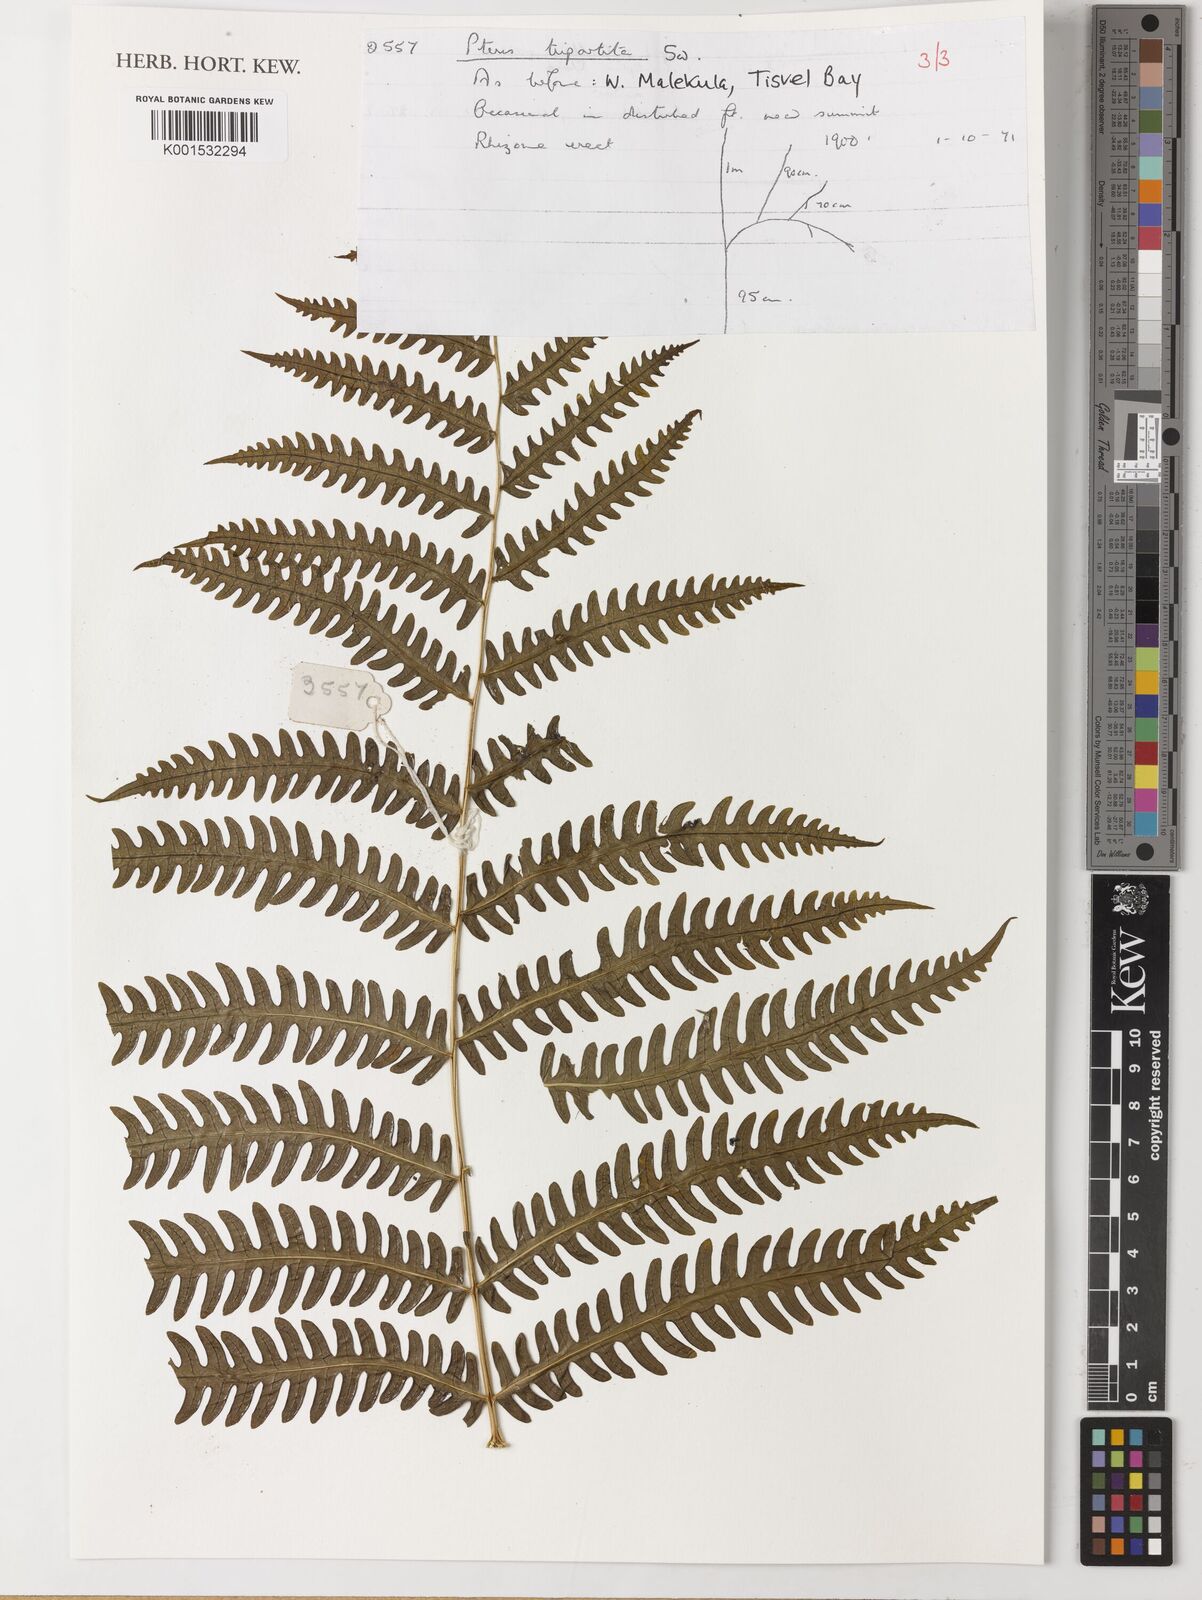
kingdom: Plantae
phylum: Tracheophyta
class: Polypodiopsida
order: Polypodiales
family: Pteridaceae
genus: Pteris
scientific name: Pteris tripartita
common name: Giant brake
